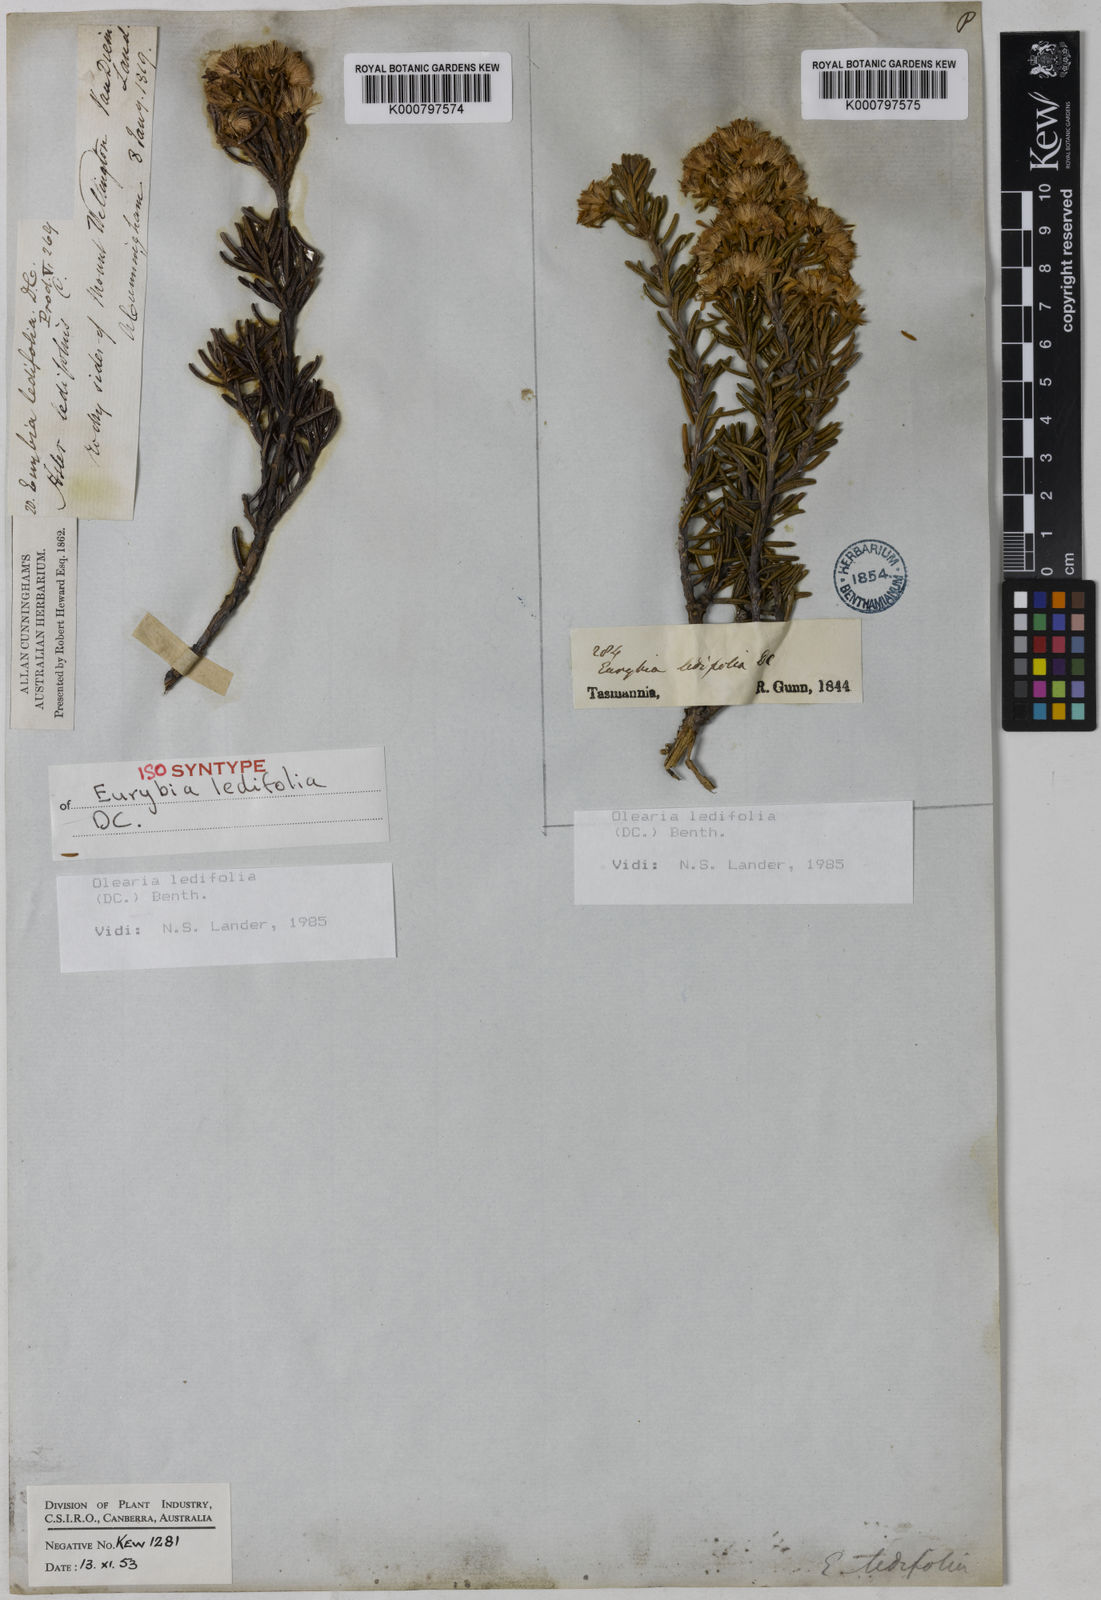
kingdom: Plantae
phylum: Tracheophyta
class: Magnoliopsida
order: Asterales
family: Asteraceae
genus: Olearia
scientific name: Olearia ledifolia
